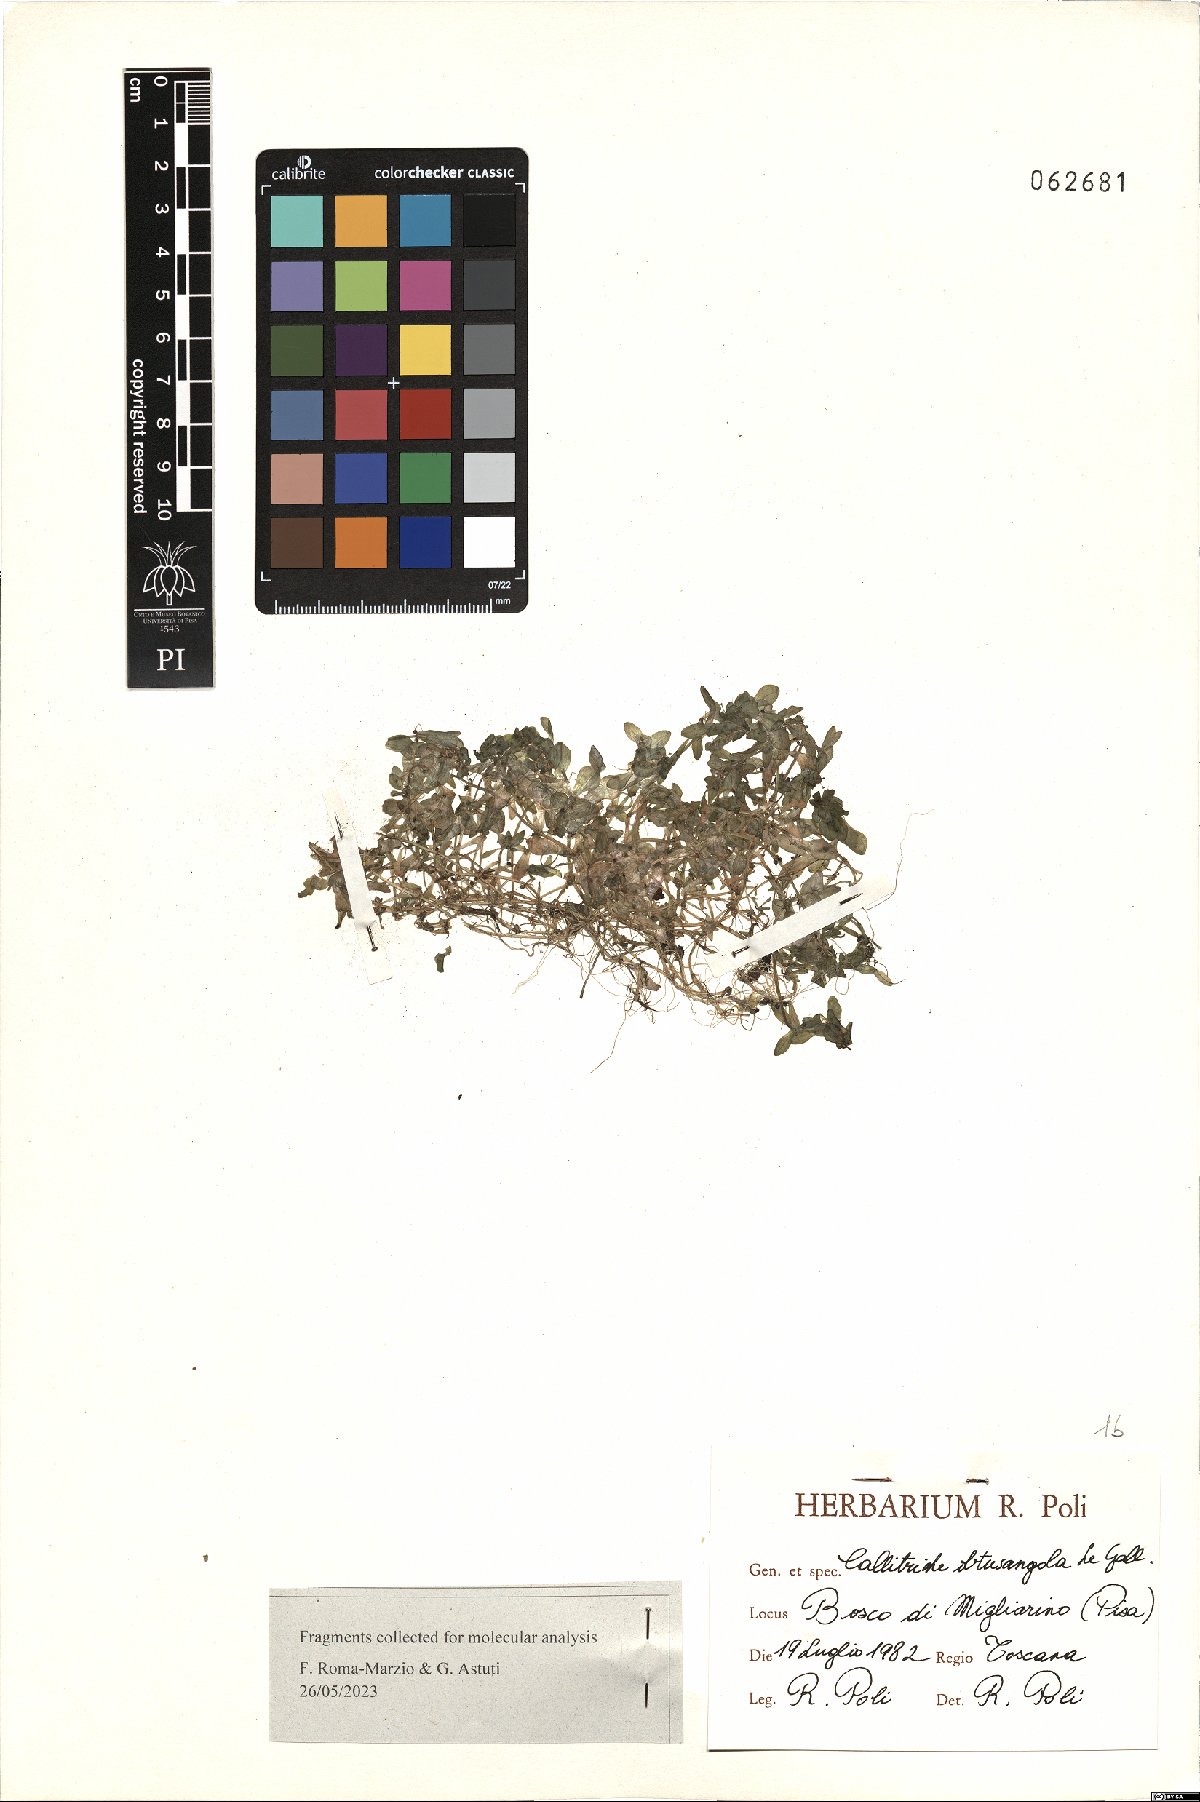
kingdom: Plantae
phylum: Tracheophyta
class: Magnoliopsida
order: Lamiales
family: Plantaginaceae
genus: Callitriche
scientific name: Callitriche obtusangula
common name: Blunt-fruited water-starwort
